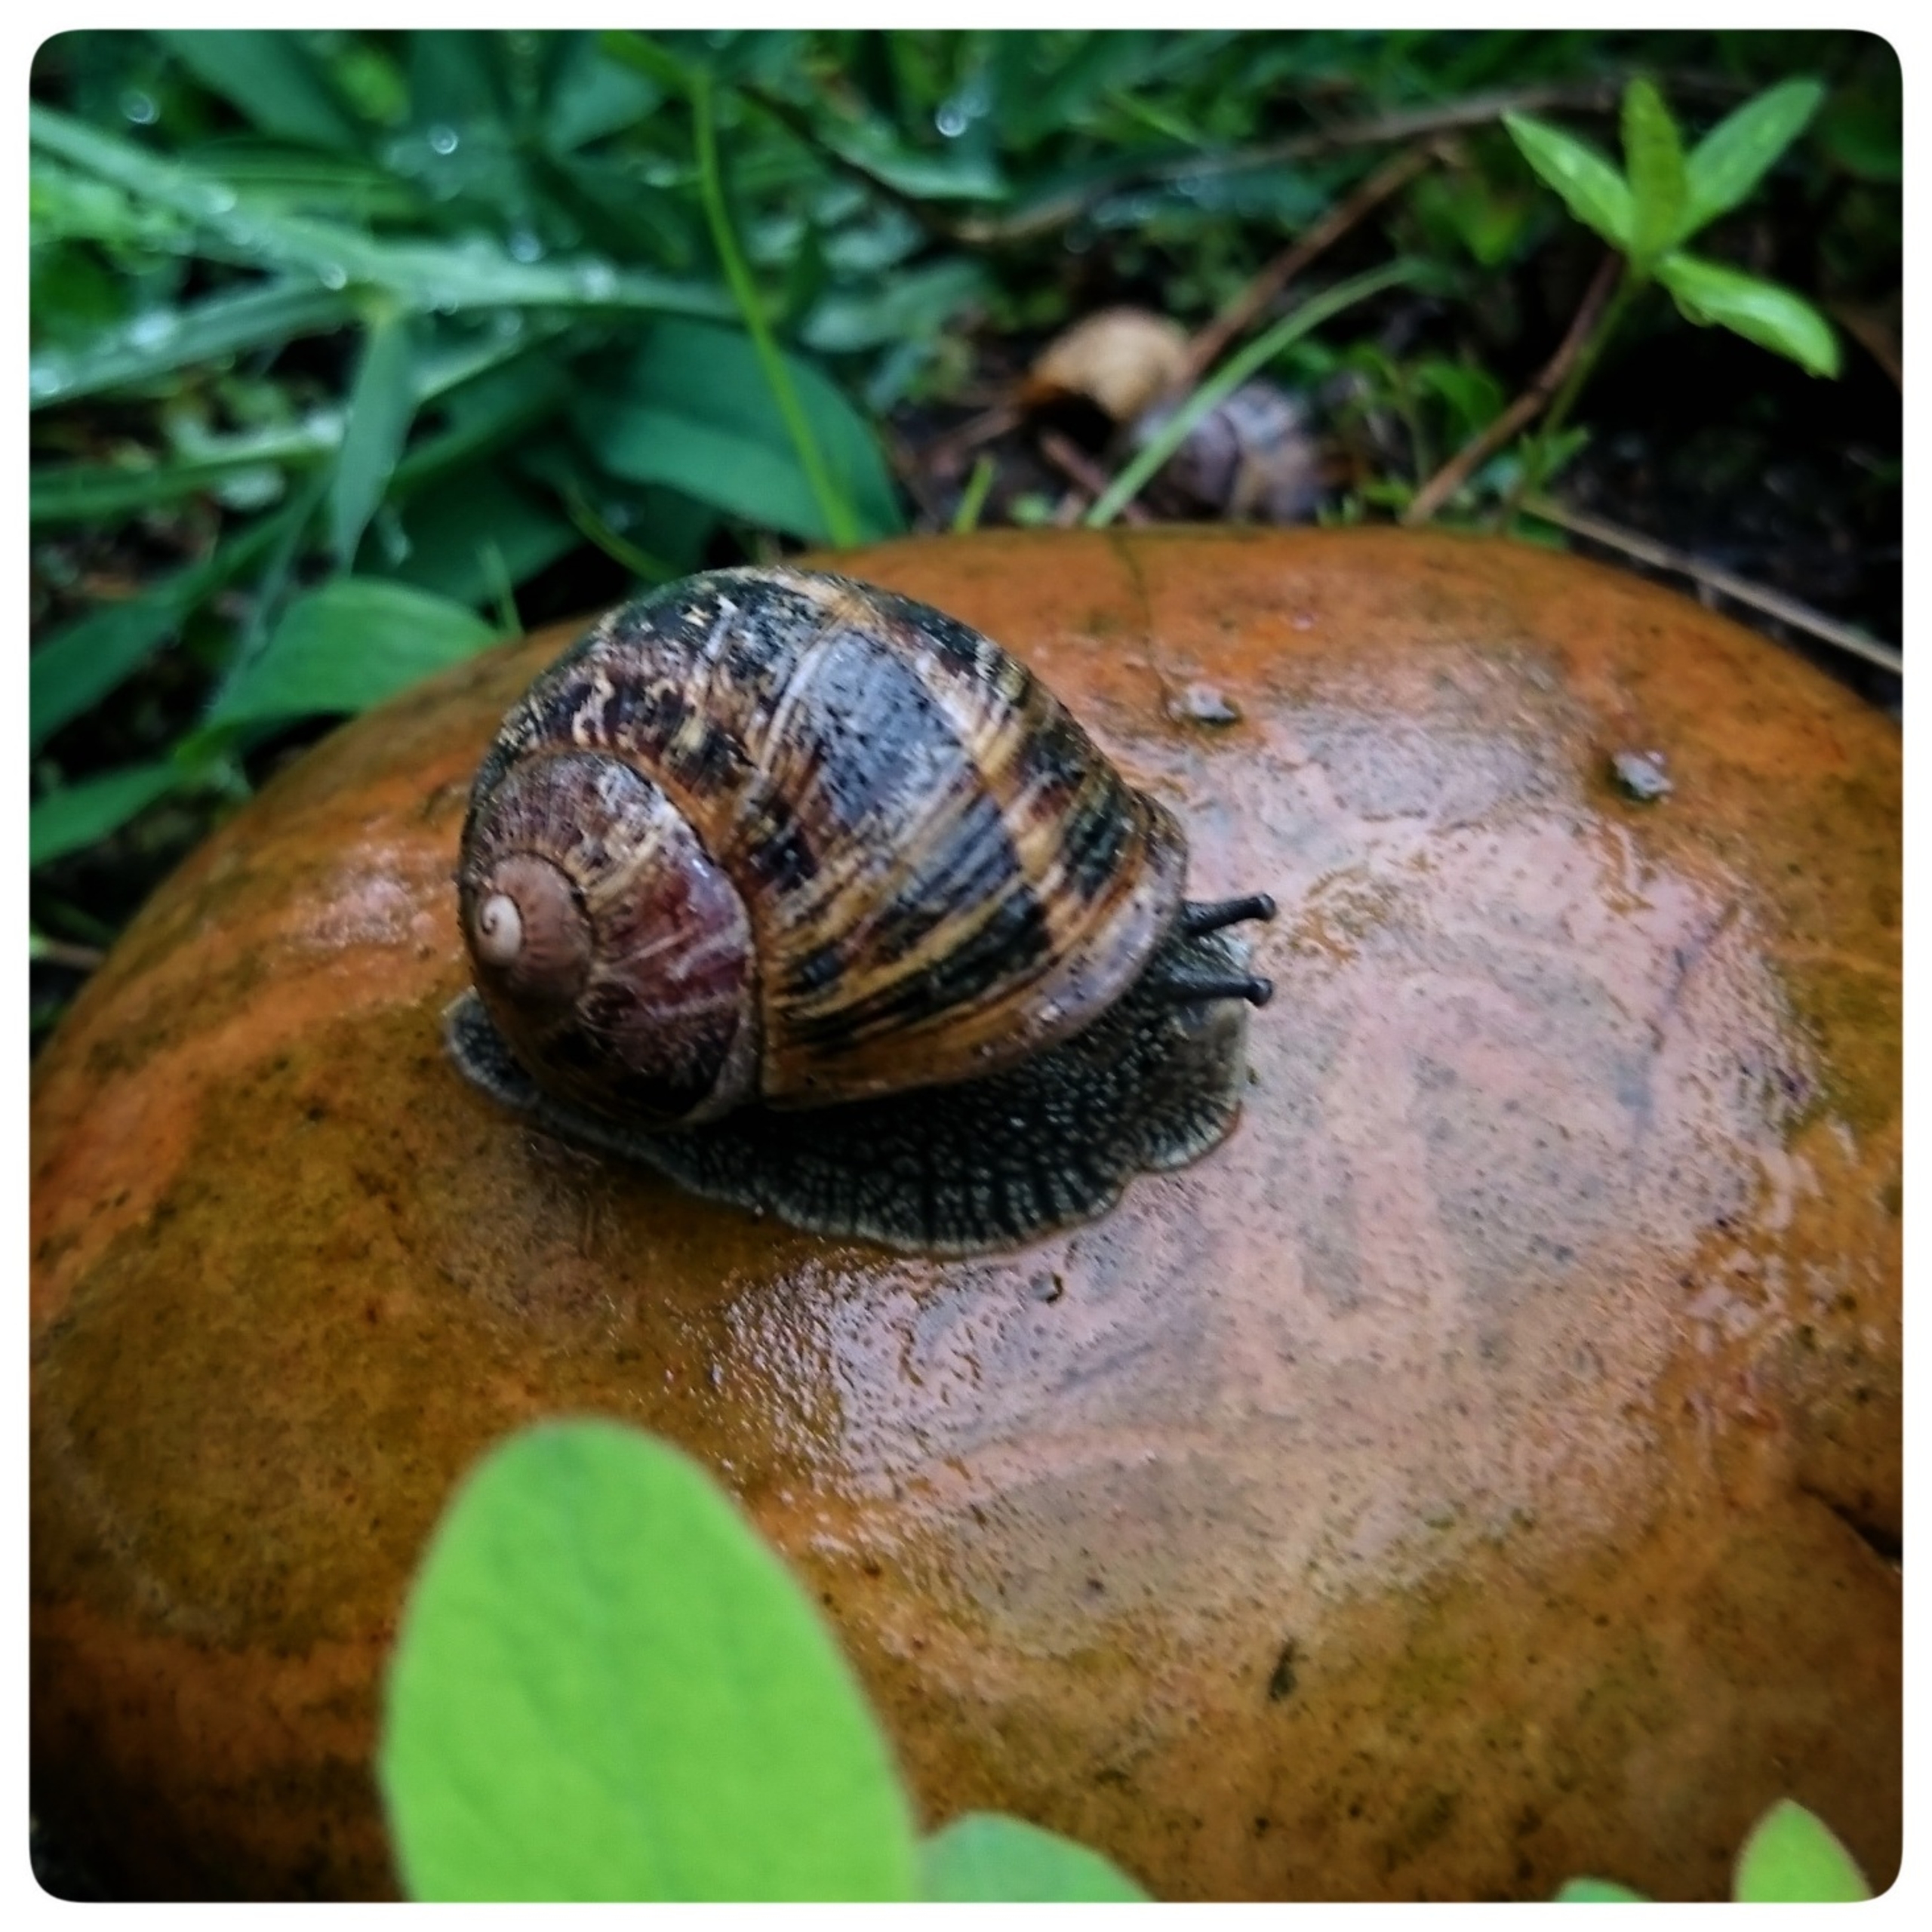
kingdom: Animalia
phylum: Mollusca
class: Gastropoda
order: Stylommatophora
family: Helicidae
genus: Cornu
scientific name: Cornu aspersum
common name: Plettet voldsnegl
